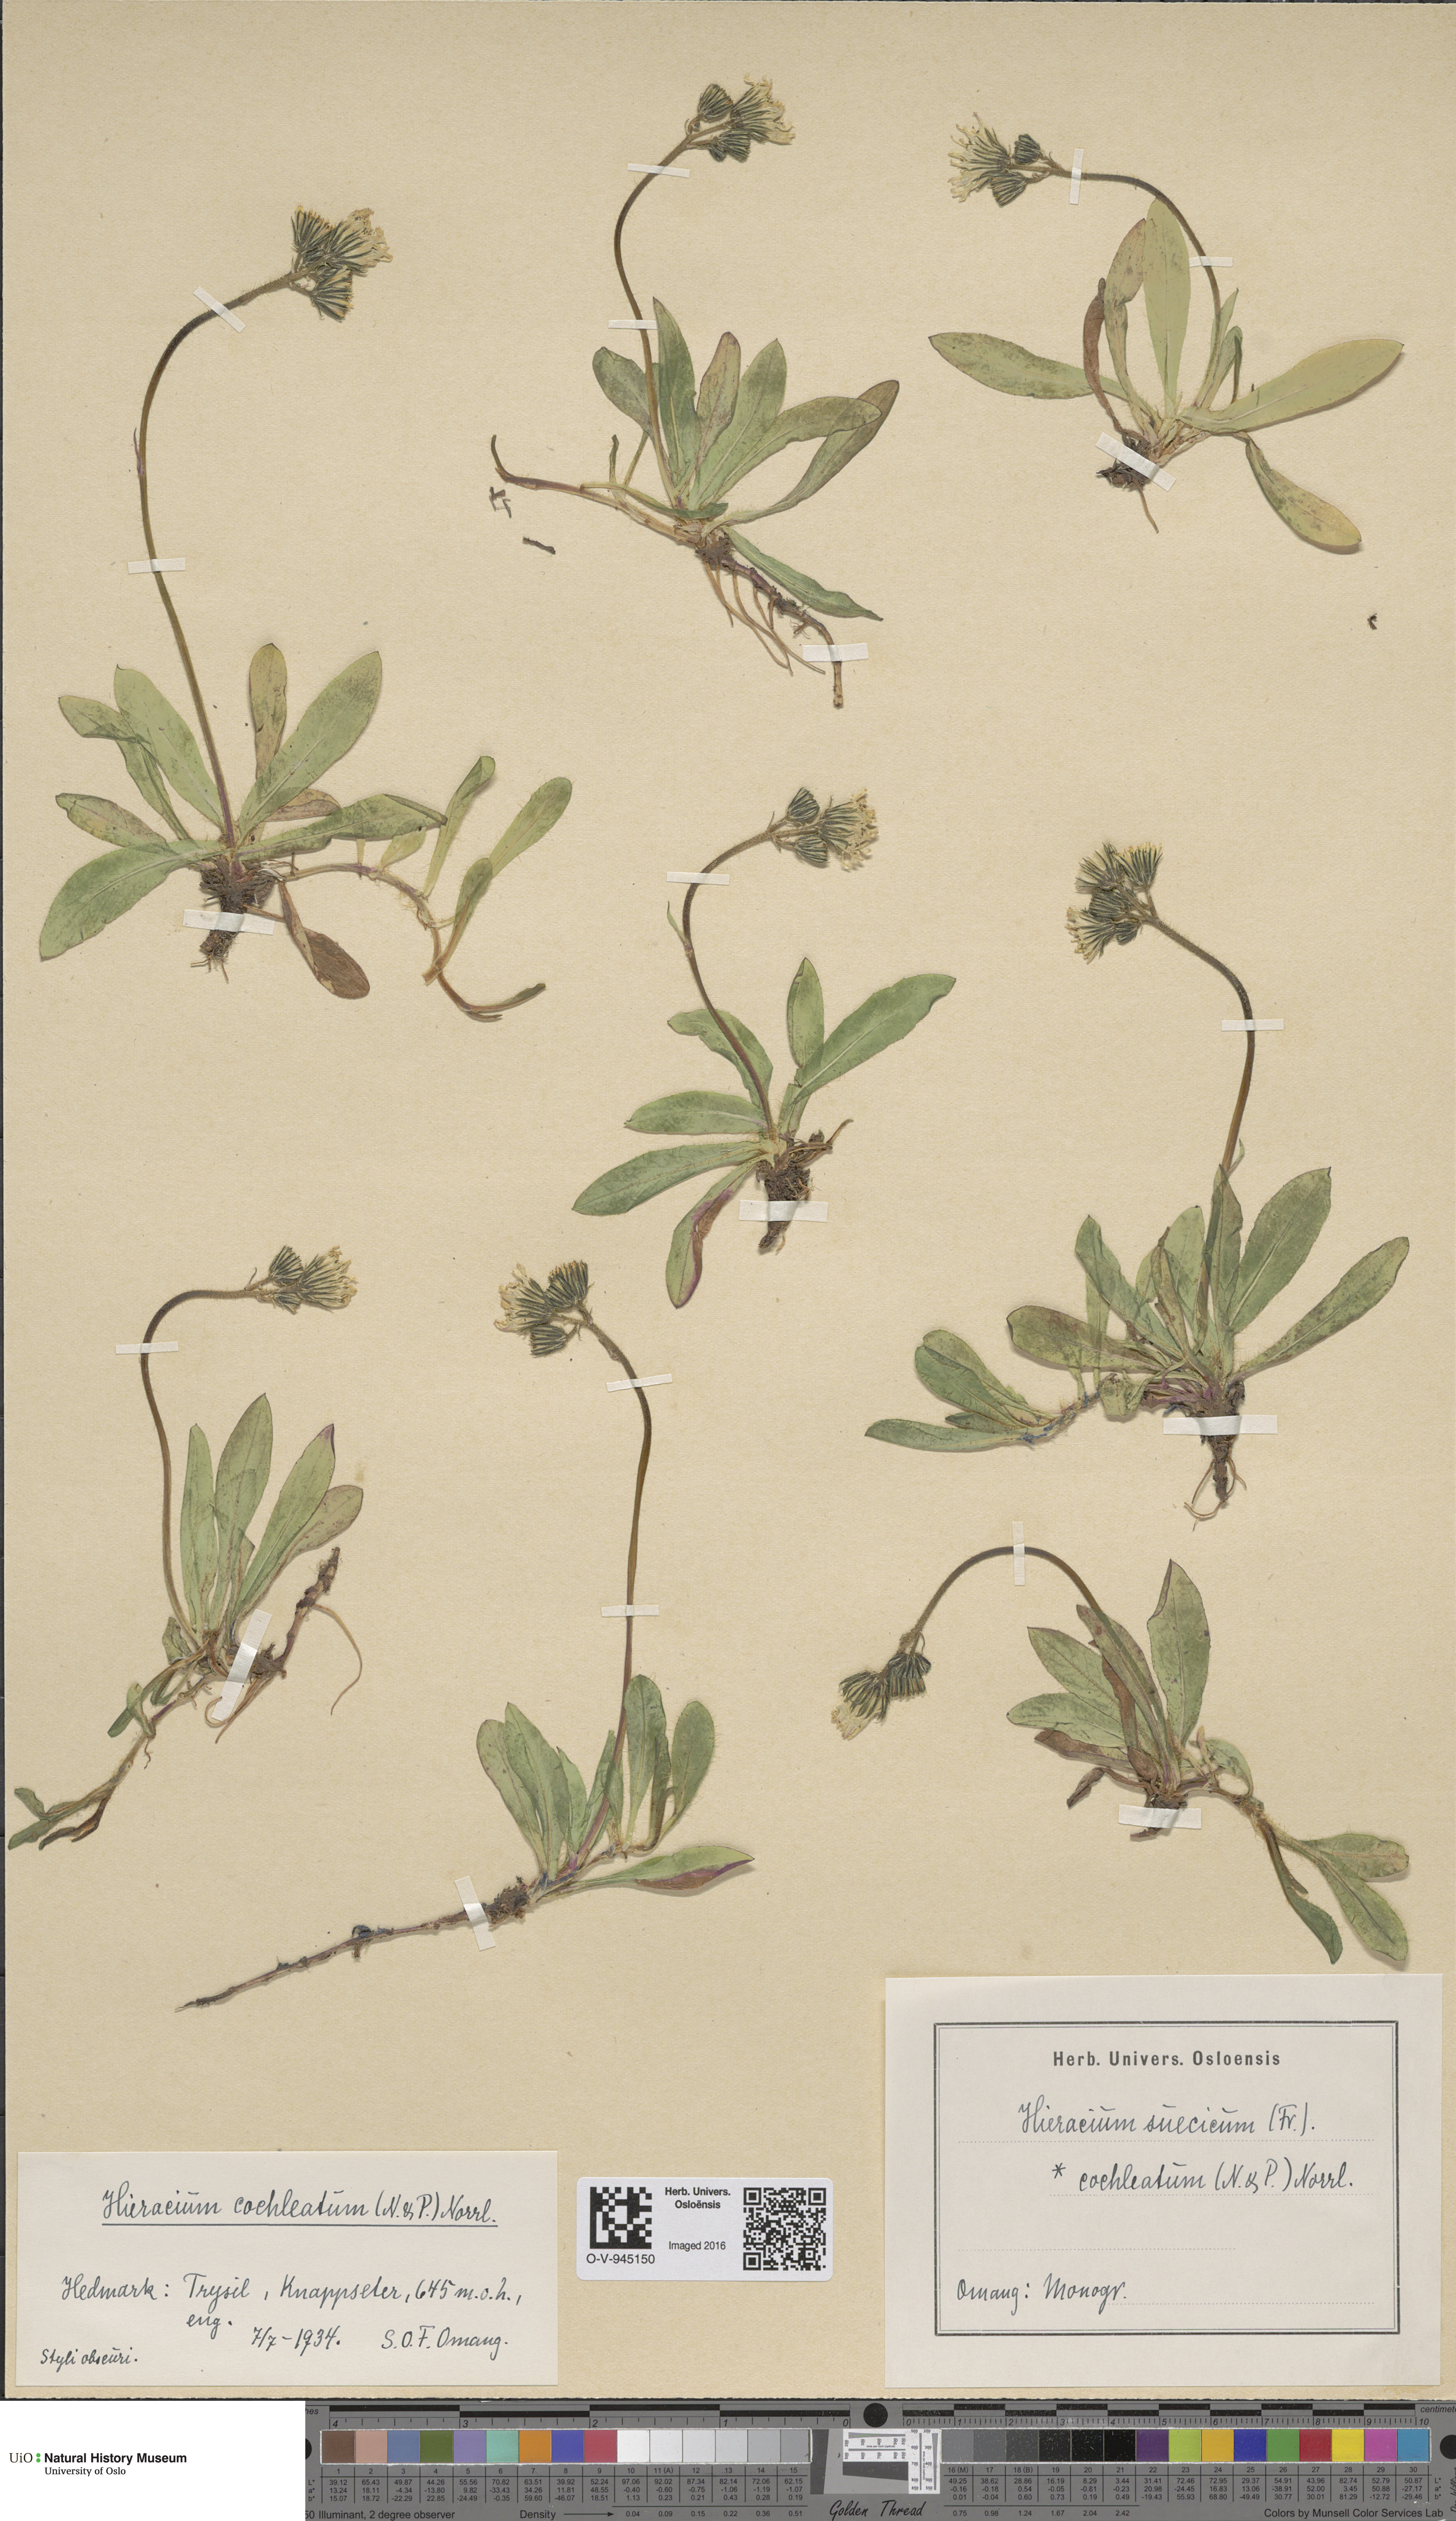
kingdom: Plantae
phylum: Tracheophyta
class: Magnoliopsida
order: Asterales
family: Asteraceae
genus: Pilosella
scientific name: Pilosella dubia
